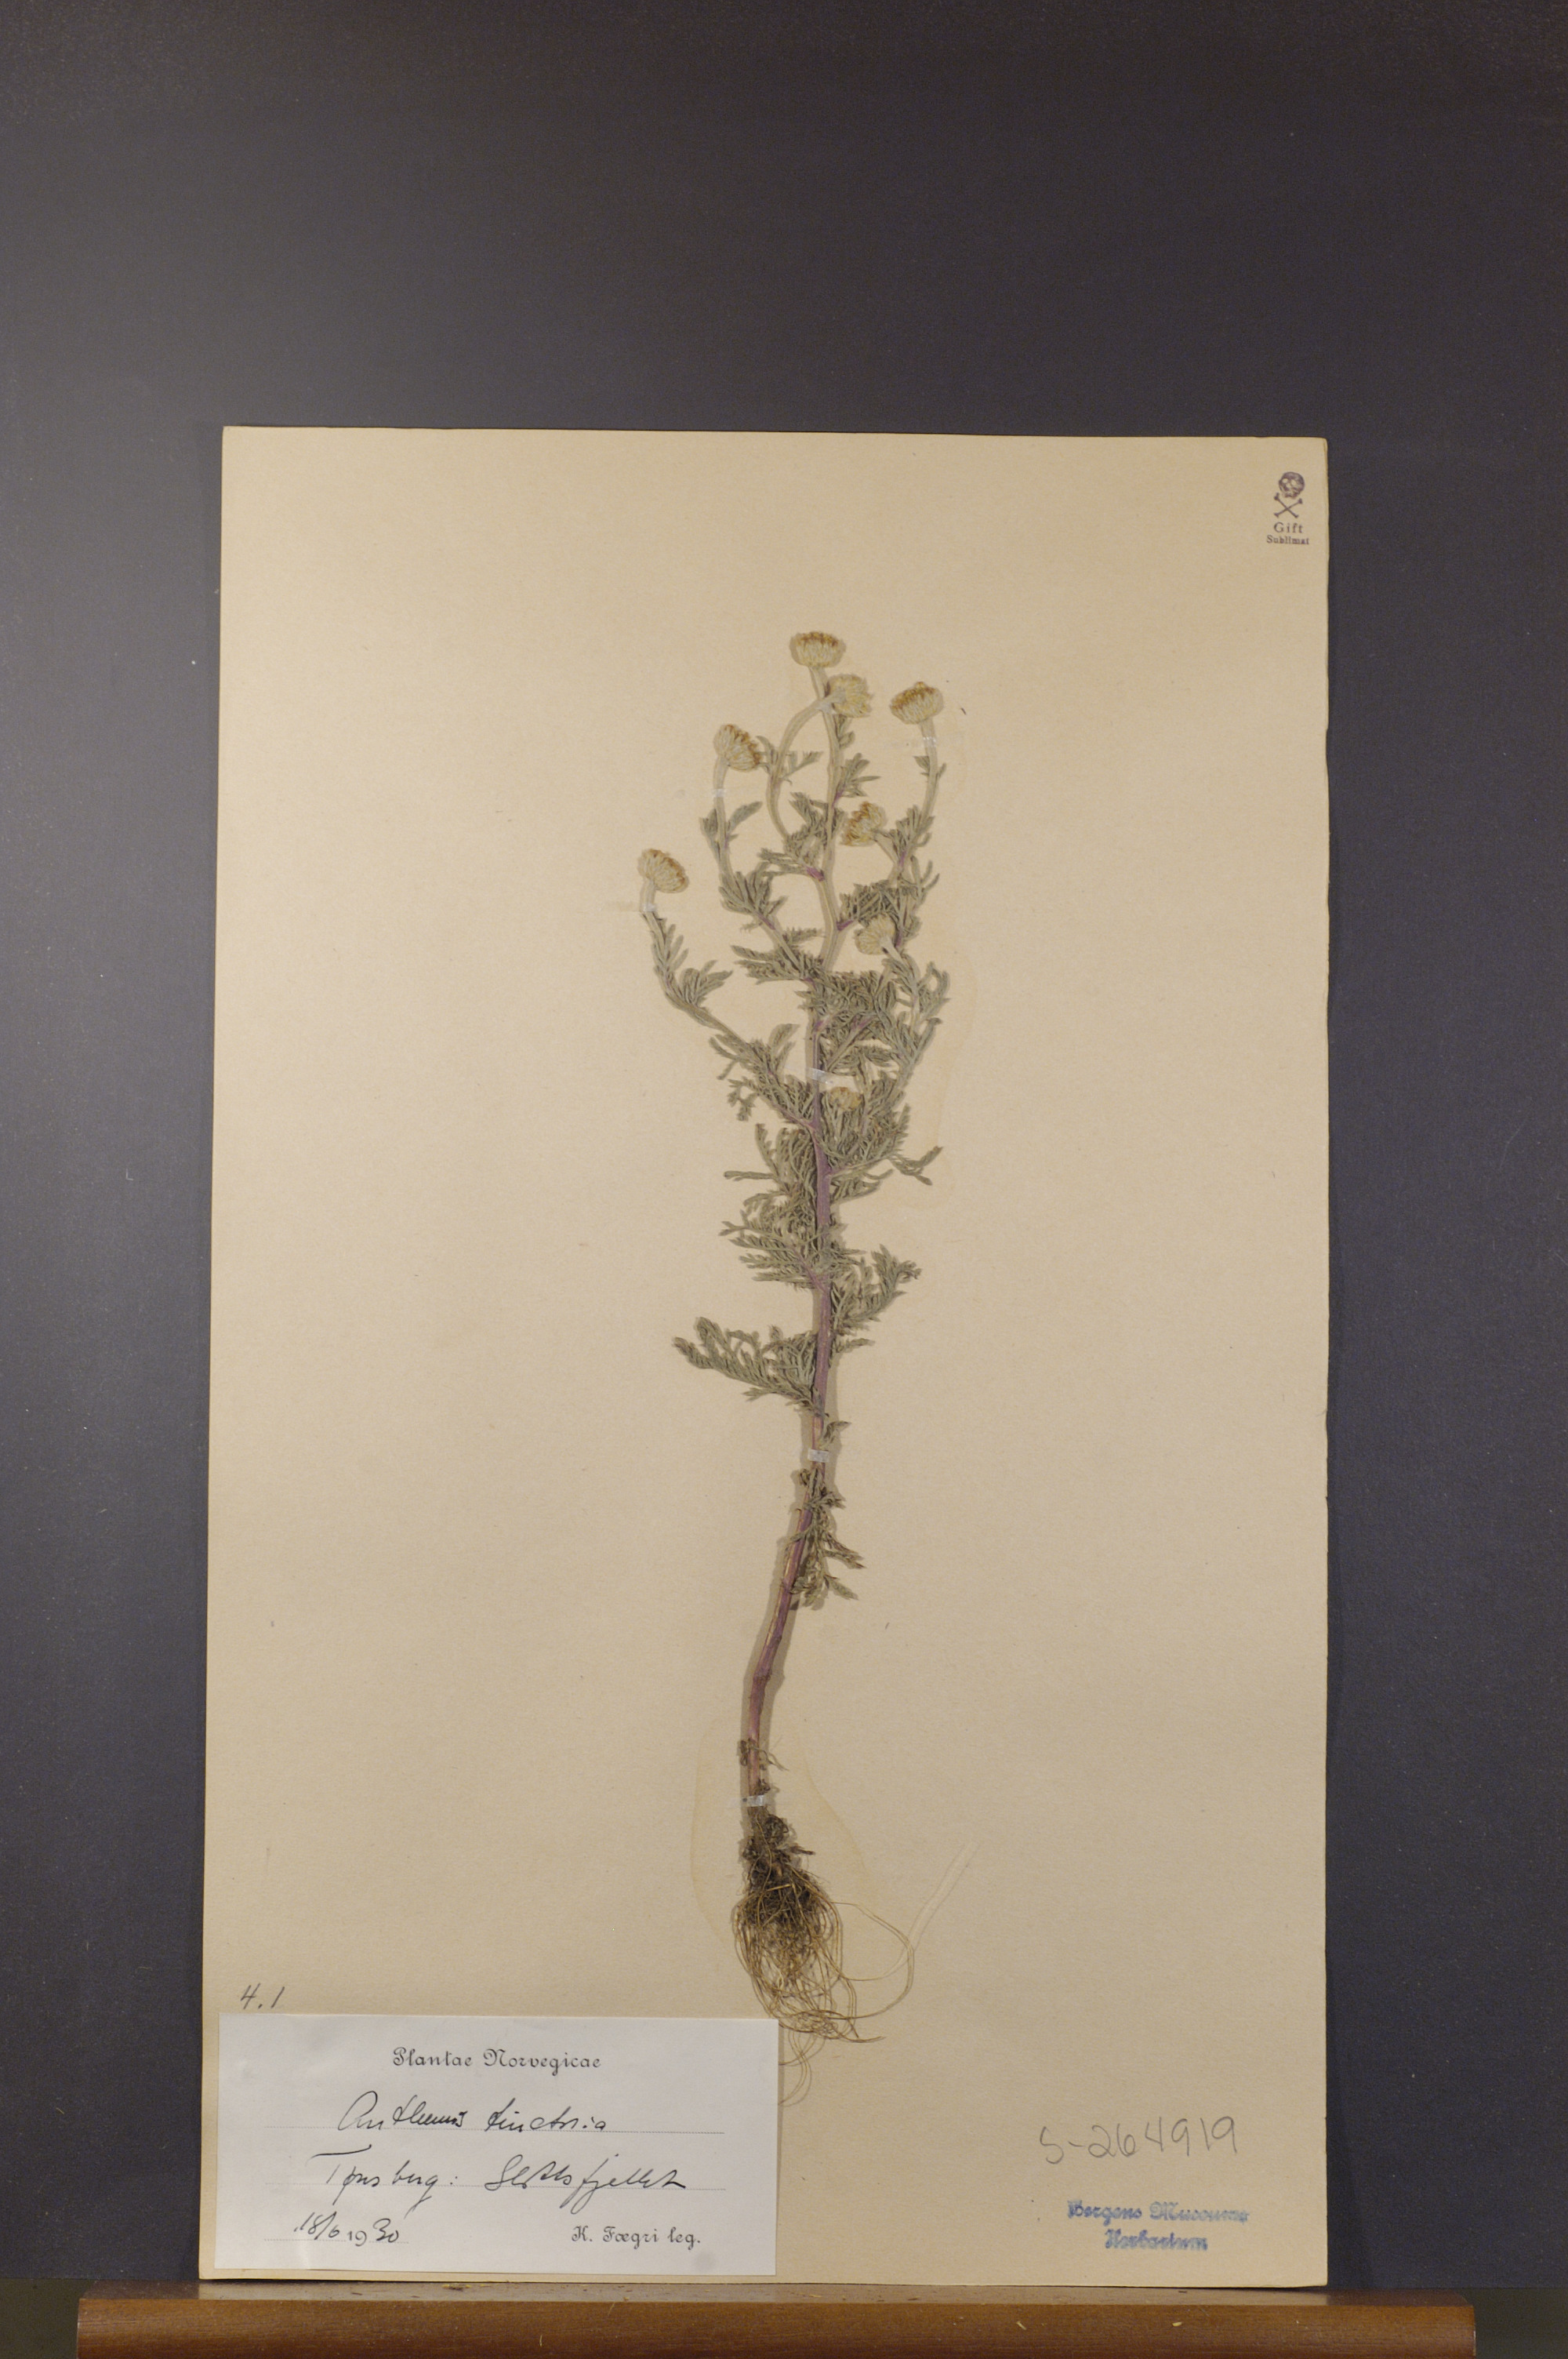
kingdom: Plantae
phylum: Tracheophyta
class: Magnoliopsida
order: Asterales
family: Asteraceae
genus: Cota
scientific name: Cota tinctoria
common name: Golden chamomile
